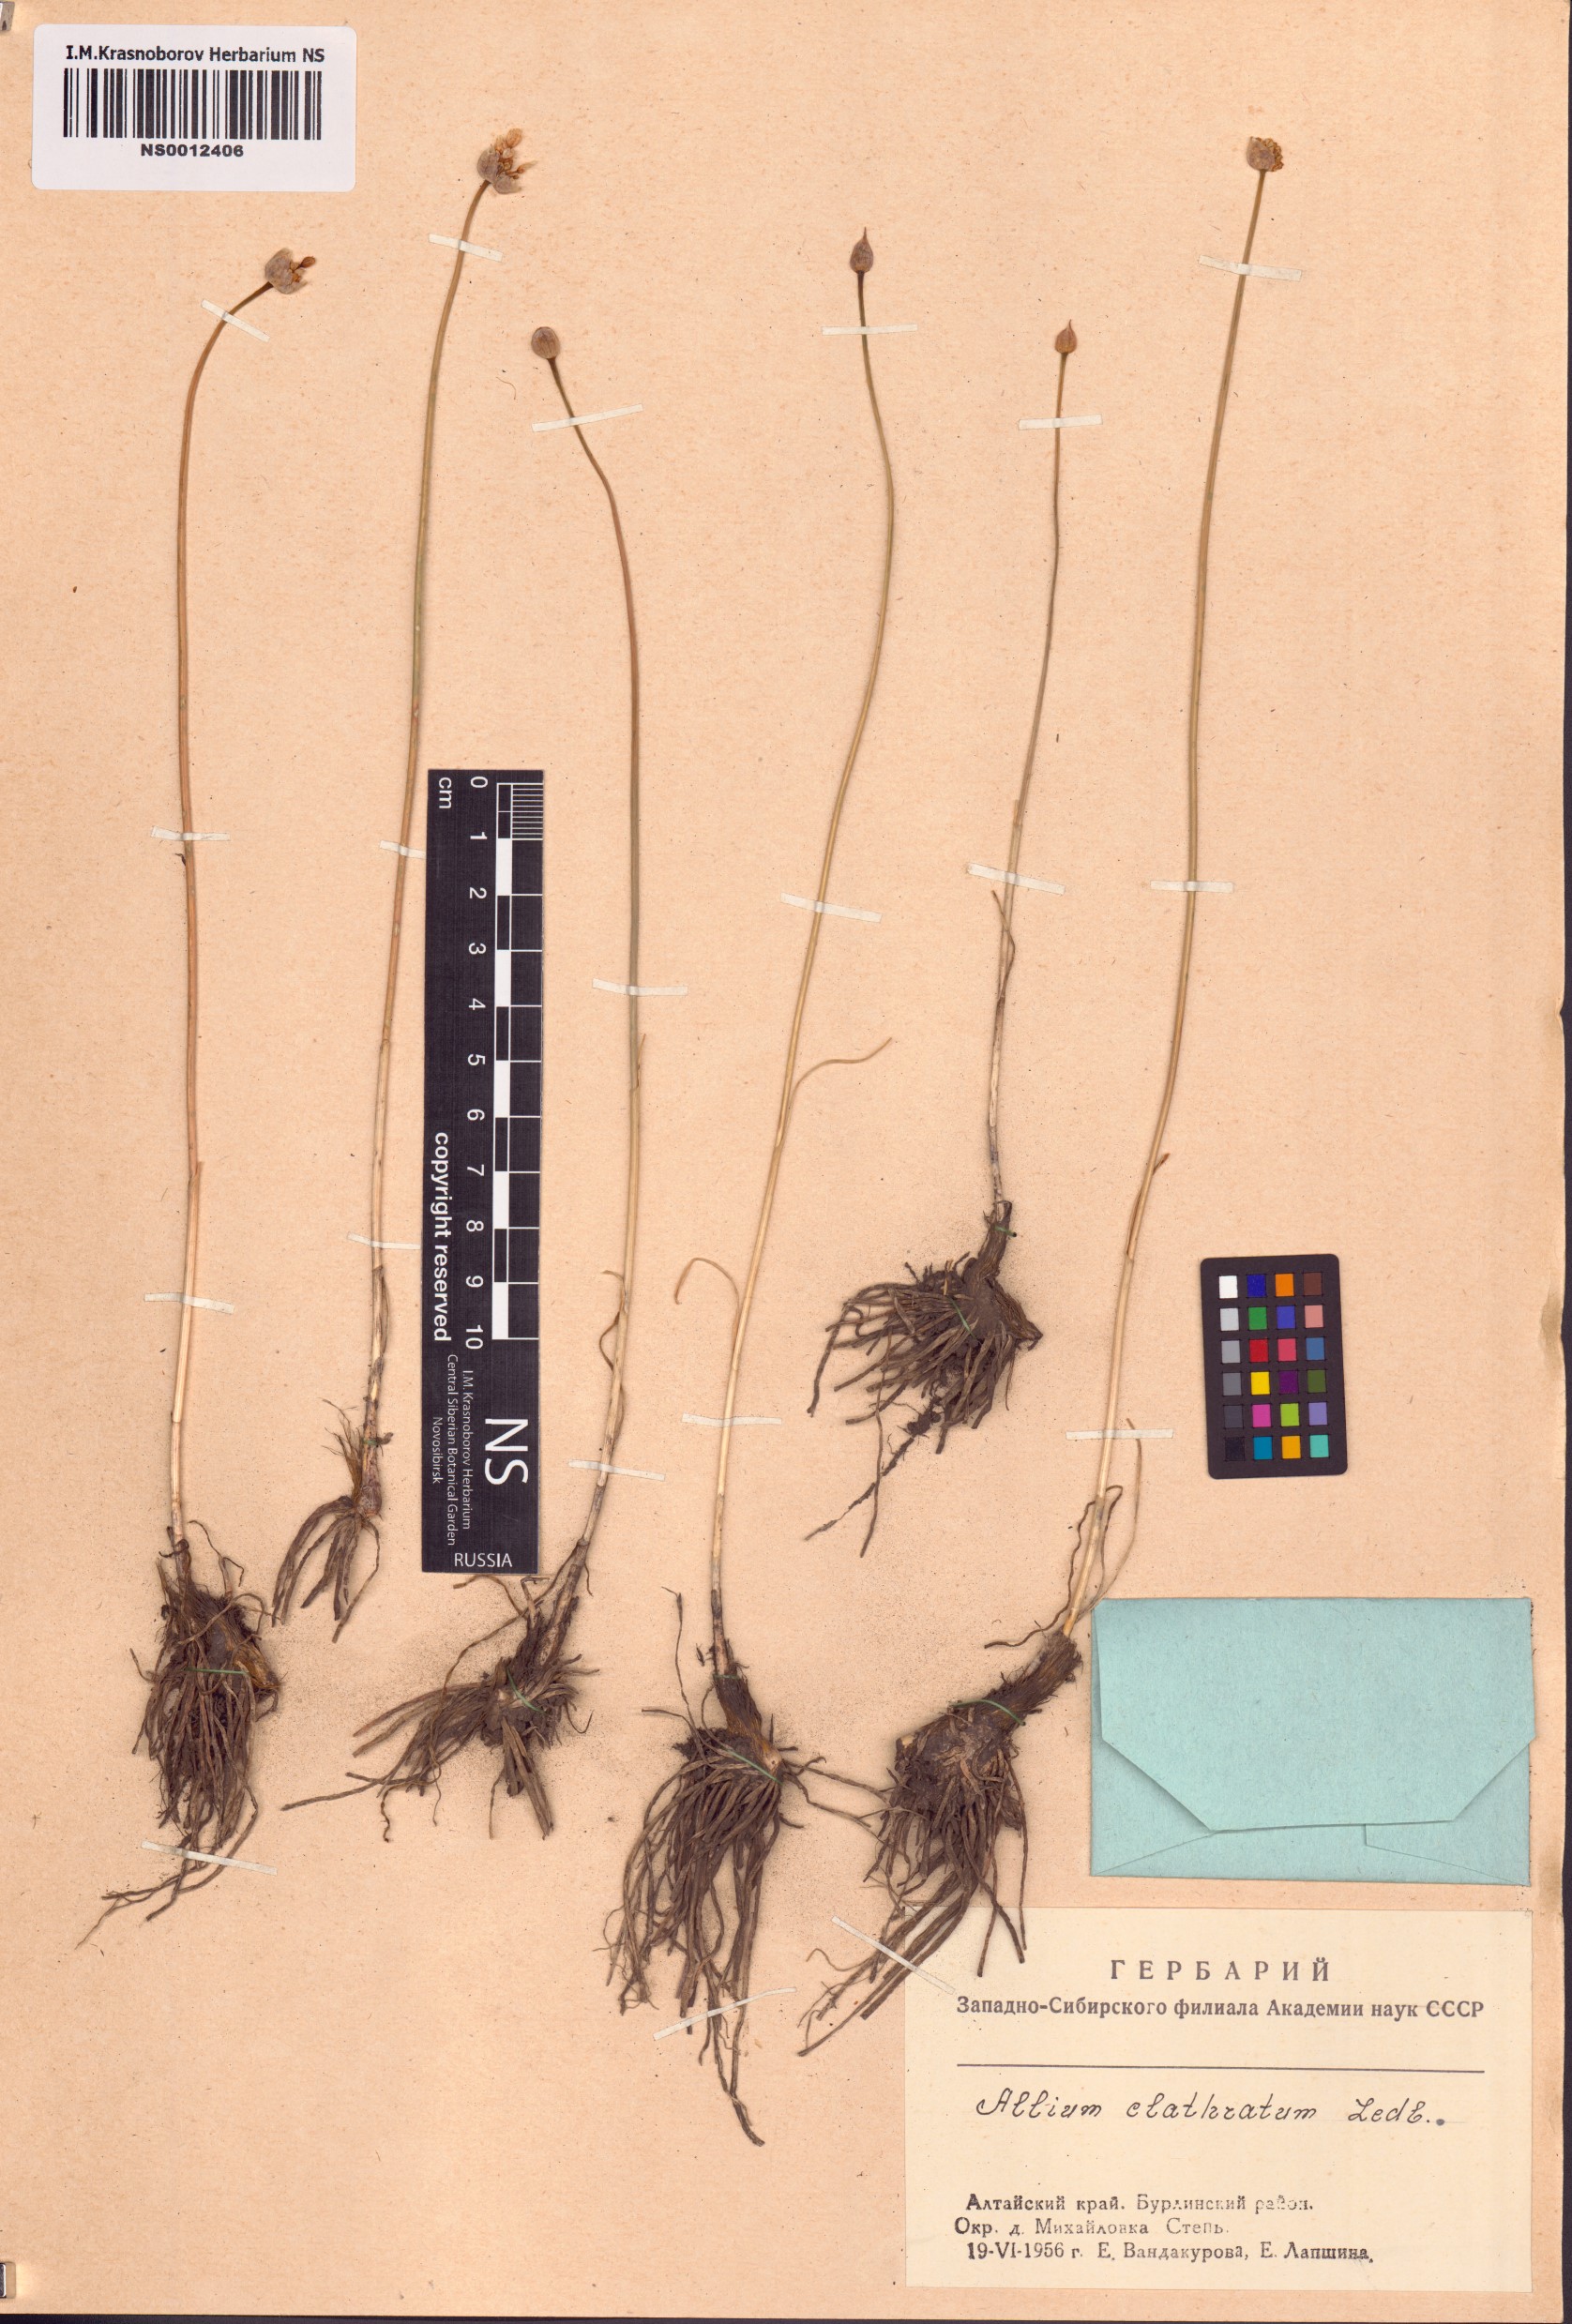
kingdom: Plantae
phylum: Tracheophyta
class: Liliopsida
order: Asparagales
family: Amaryllidaceae
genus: Allium
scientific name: Allium clathratum
